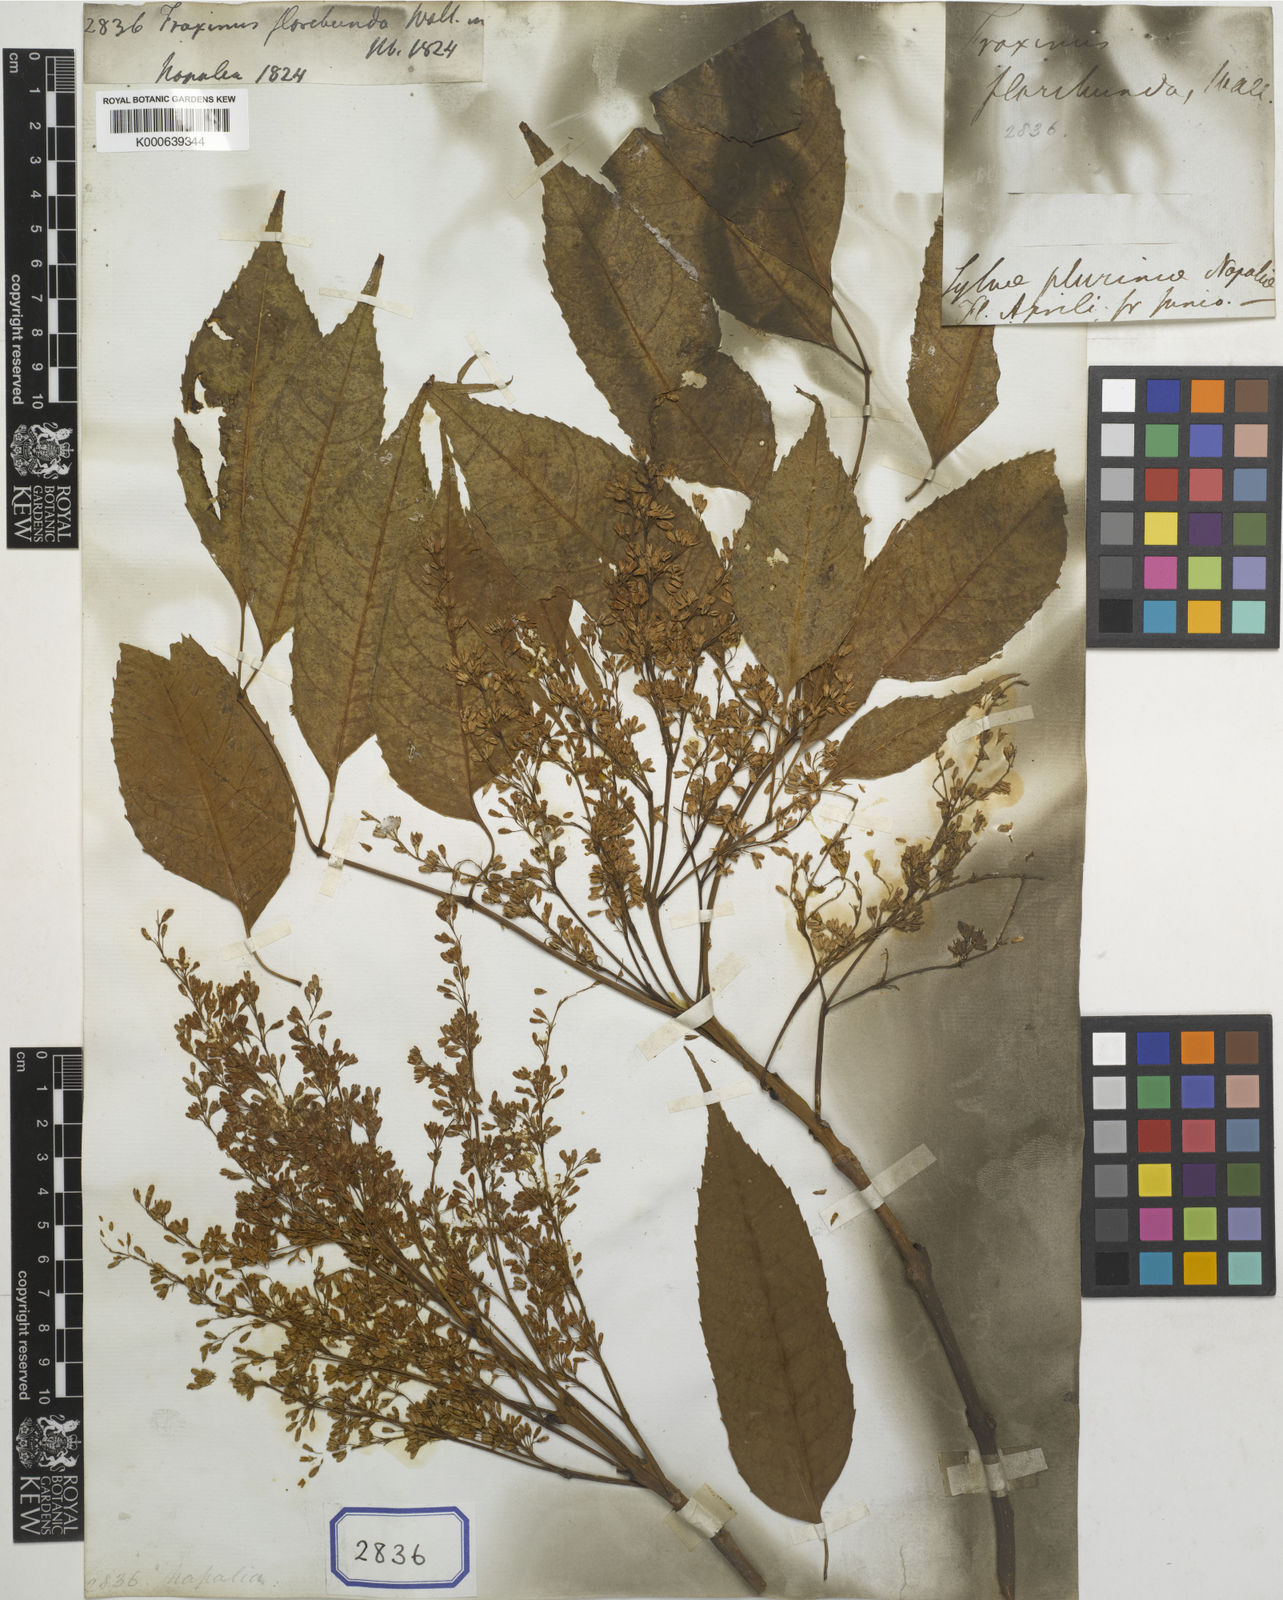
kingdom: Plantae
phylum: Tracheophyta
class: Magnoliopsida
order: Lamiales
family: Oleaceae
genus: Fraxinus
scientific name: Fraxinus floribunda
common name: East indian ash
